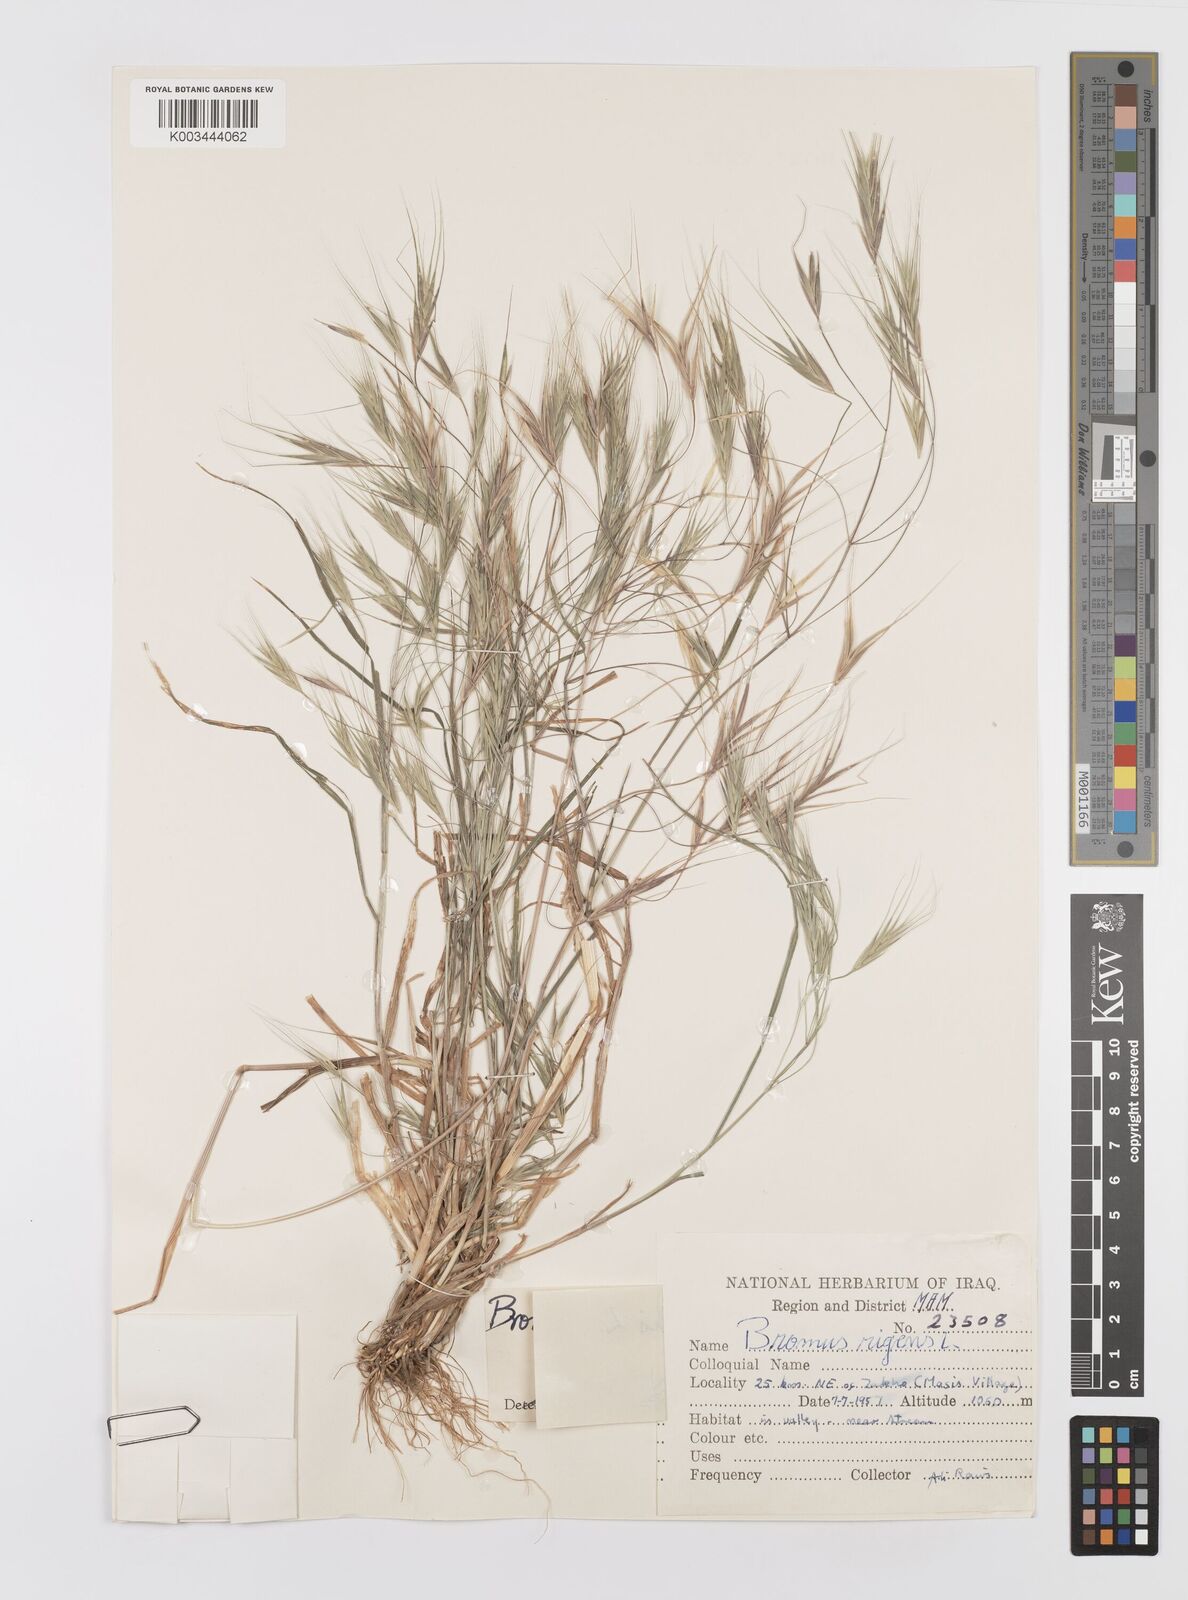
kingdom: Plantae
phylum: Tracheophyta
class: Liliopsida
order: Poales
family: Poaceae
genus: Bromus
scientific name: Bromus sterilis
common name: Poverty brome
